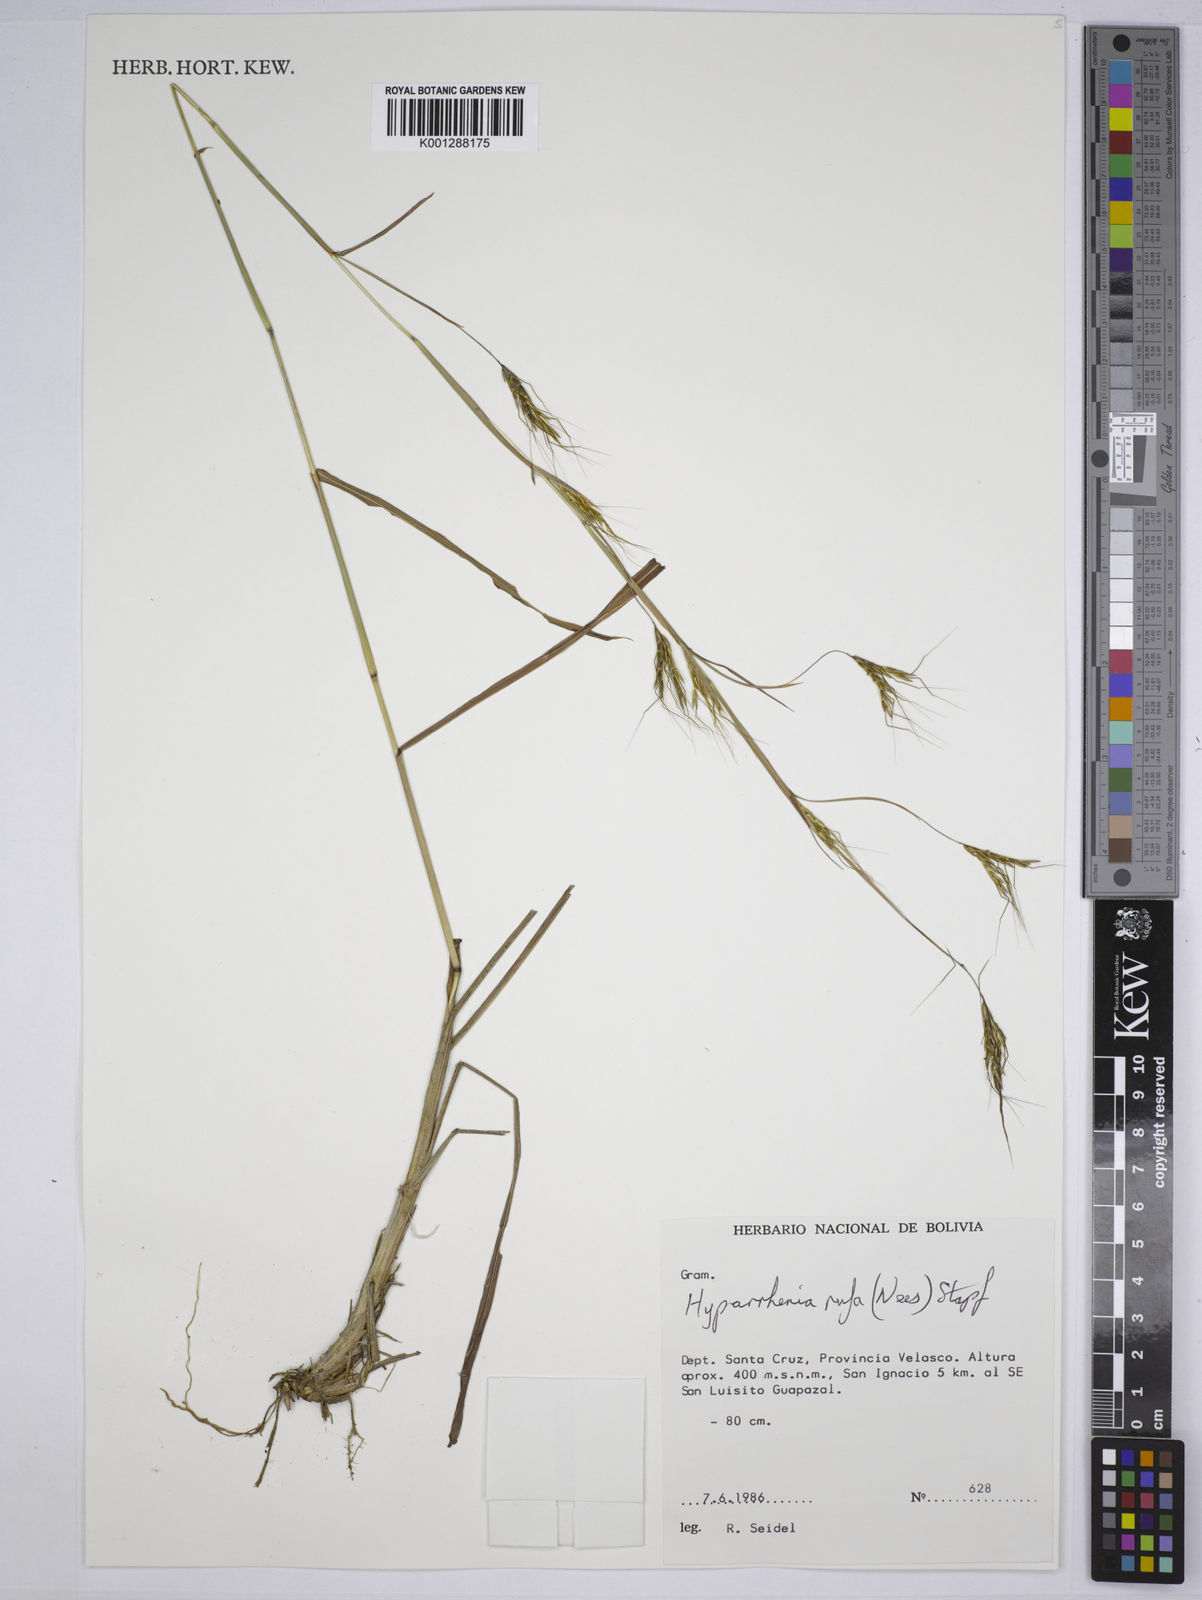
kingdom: Plantae
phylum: Tracheophyta
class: Liliopsida
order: Poales
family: Poaceae
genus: Hyparrhenia
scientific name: Hyparrhenia rufa
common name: Jaraguagrass
